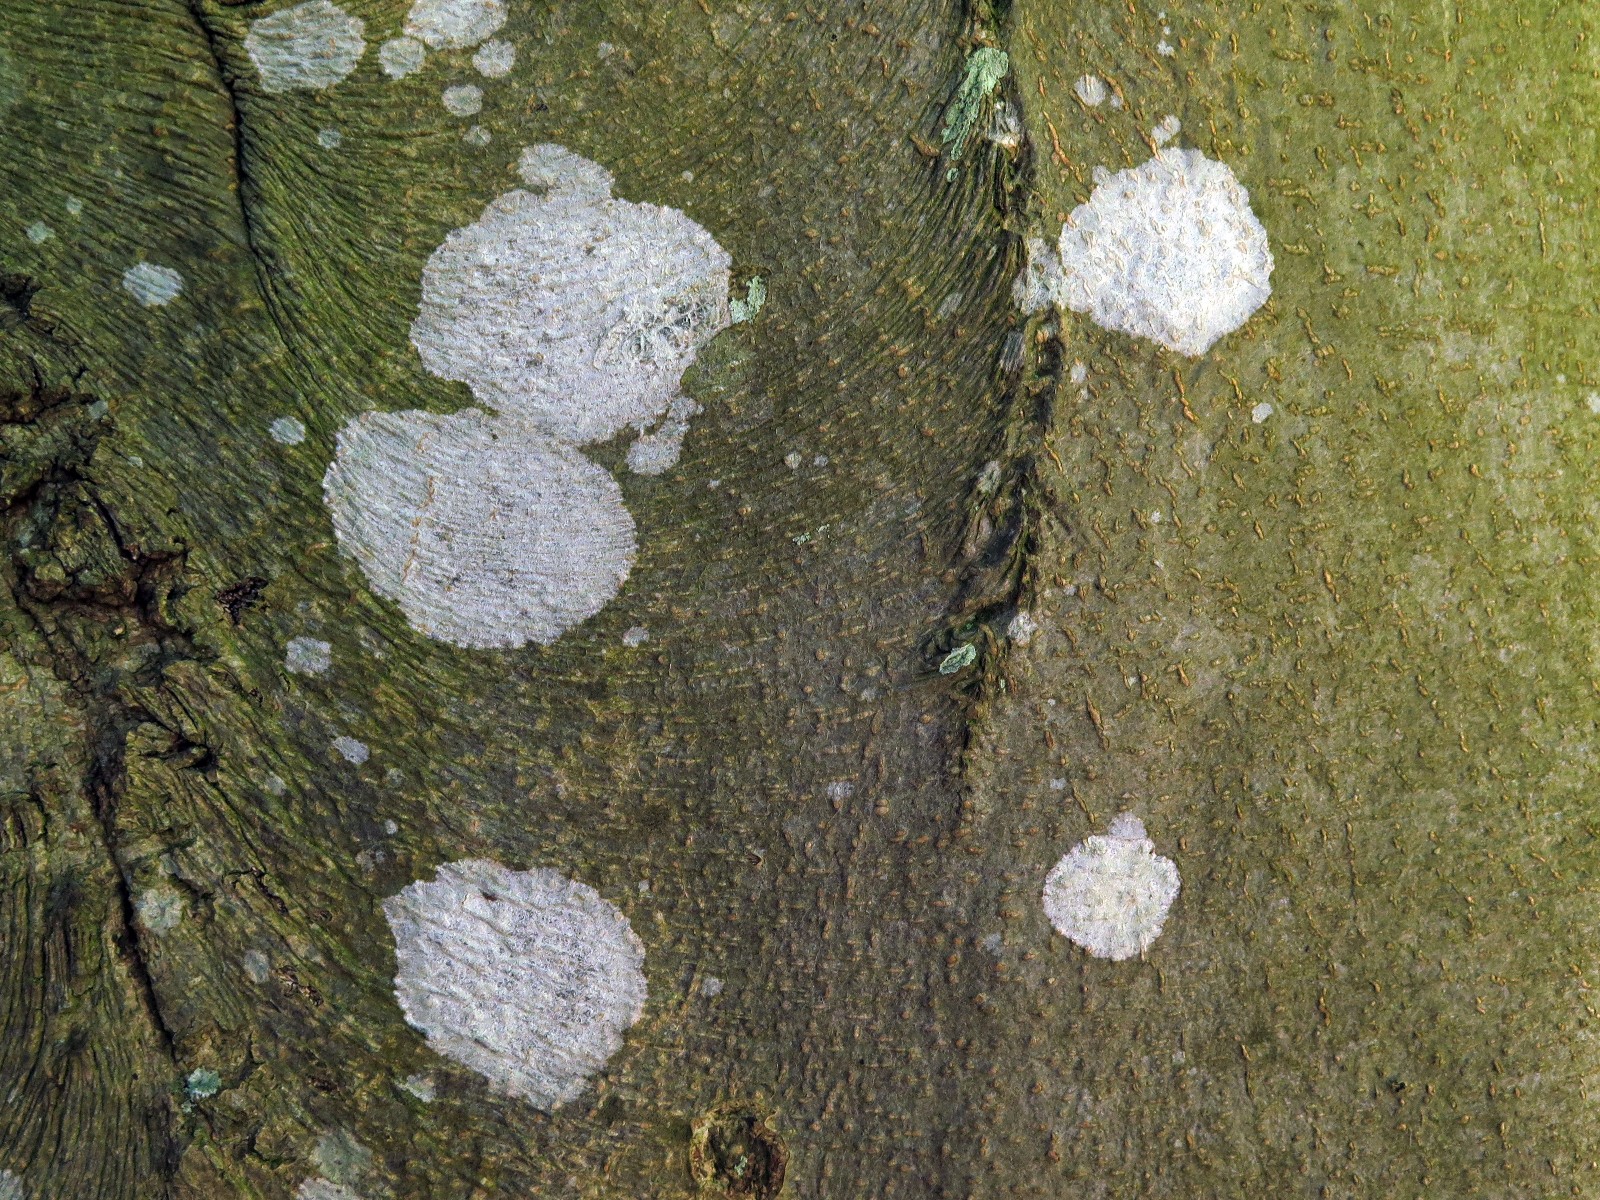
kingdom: Fungi
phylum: Ascomycota
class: Lecanoromycetes
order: Ostropales
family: Phlyctidaceae
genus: Phlyctis
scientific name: Phlyctis argena
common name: almindelig sølvlav
